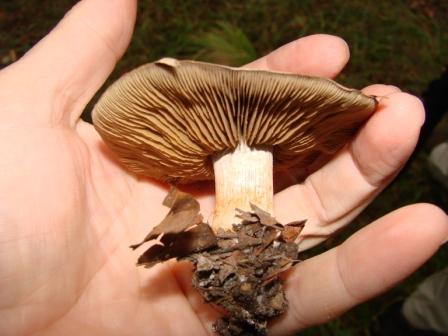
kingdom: Fungi
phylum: Basidiomycota
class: Agaricomycetes
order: Agaricales
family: Cortinariaceae
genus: Cortinarius
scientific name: Cortinarius
